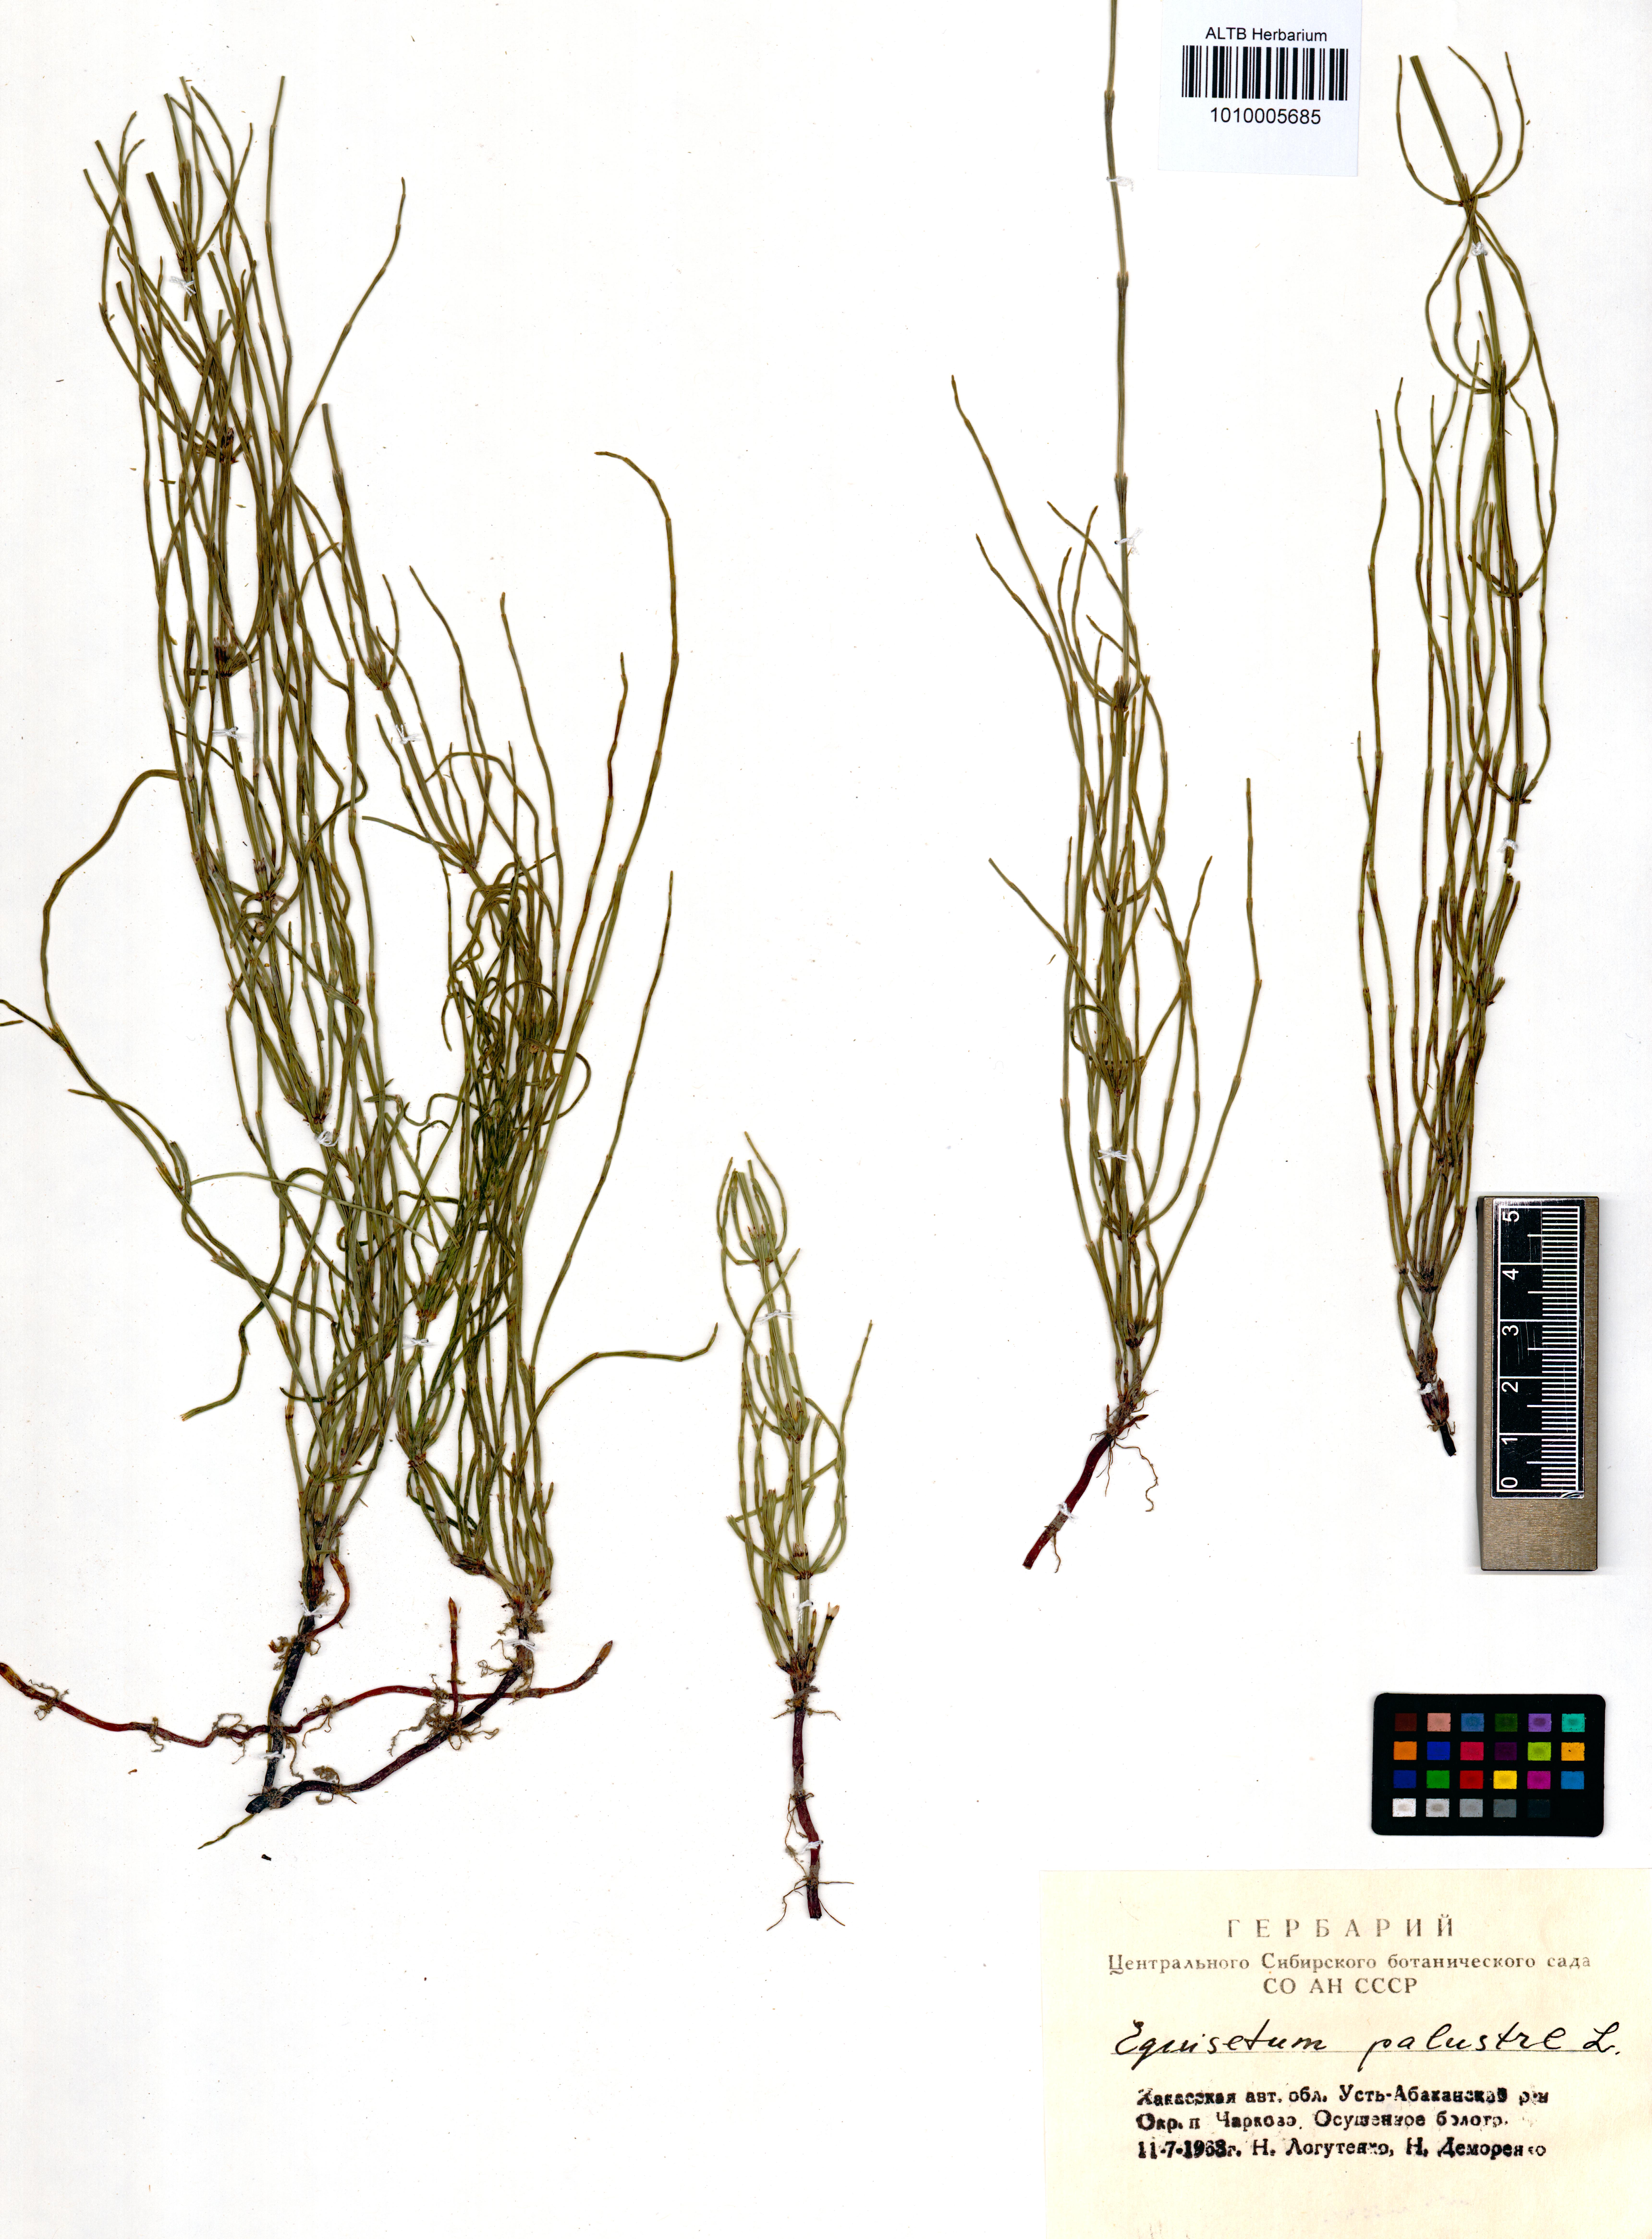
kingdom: Plantae
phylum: Tracheophyta
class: Polypodiopsida
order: Equisetales
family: Equisetaceae
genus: Equisetum
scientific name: Equisetum palustre
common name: Marsh horsetail
